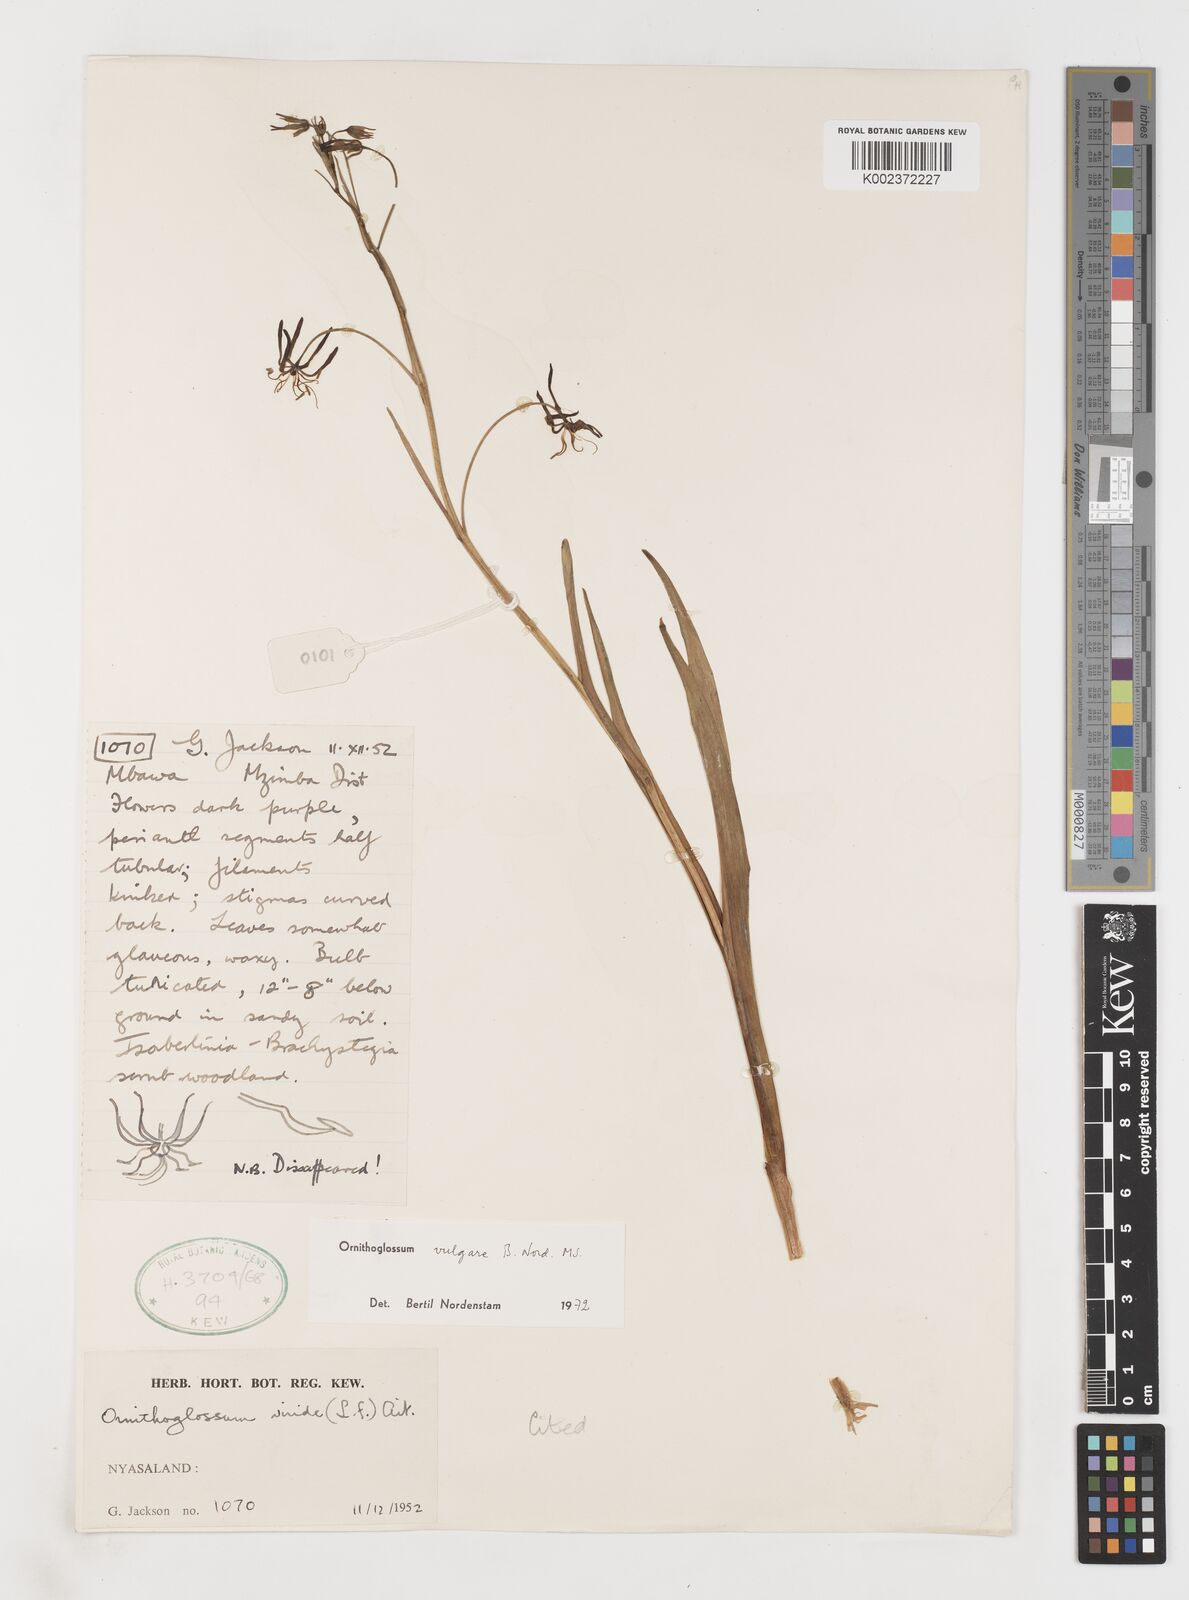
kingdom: Plantae
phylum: Tracheophyta
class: Liliopsida
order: Liliales
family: Colchicaceae
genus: Ornithoglossum
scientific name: Ornithoglossum vulgare
